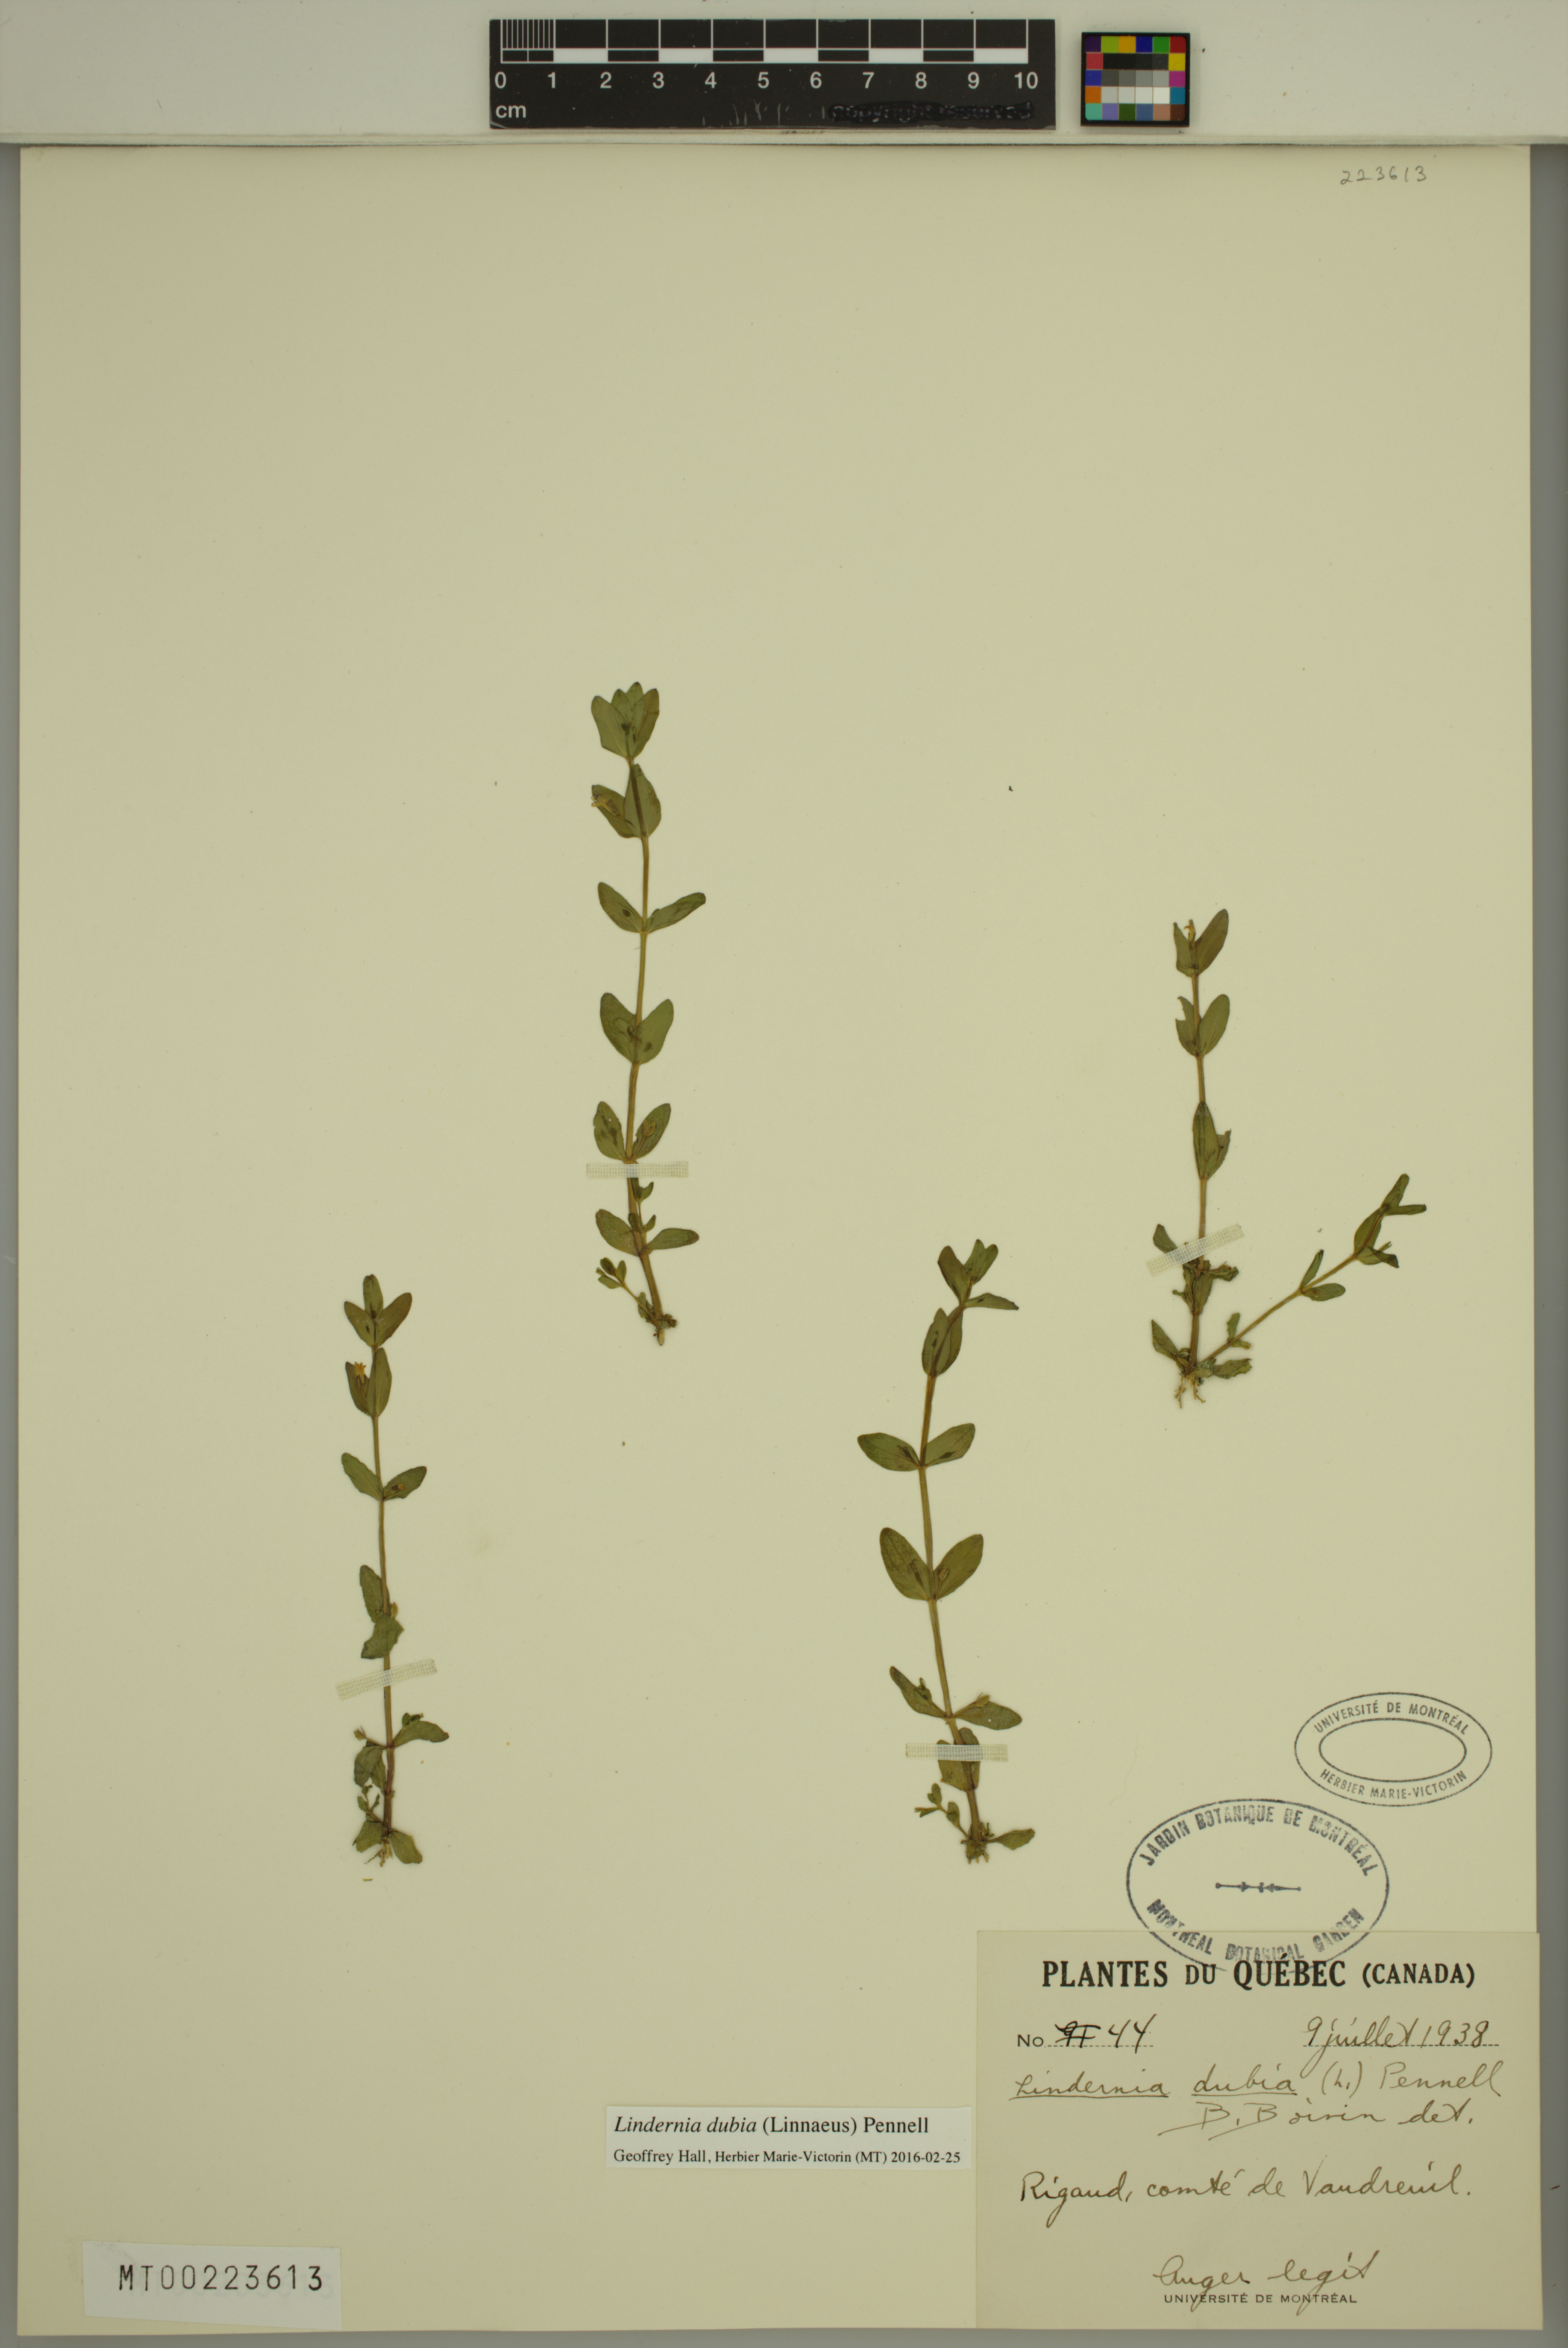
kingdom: Plantae
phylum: Tracheophyta
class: Magnoliopsida
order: Lamiales
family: Linderniaceae
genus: Lindernia
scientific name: Lindernia dubia
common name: Annual false pimpernel
